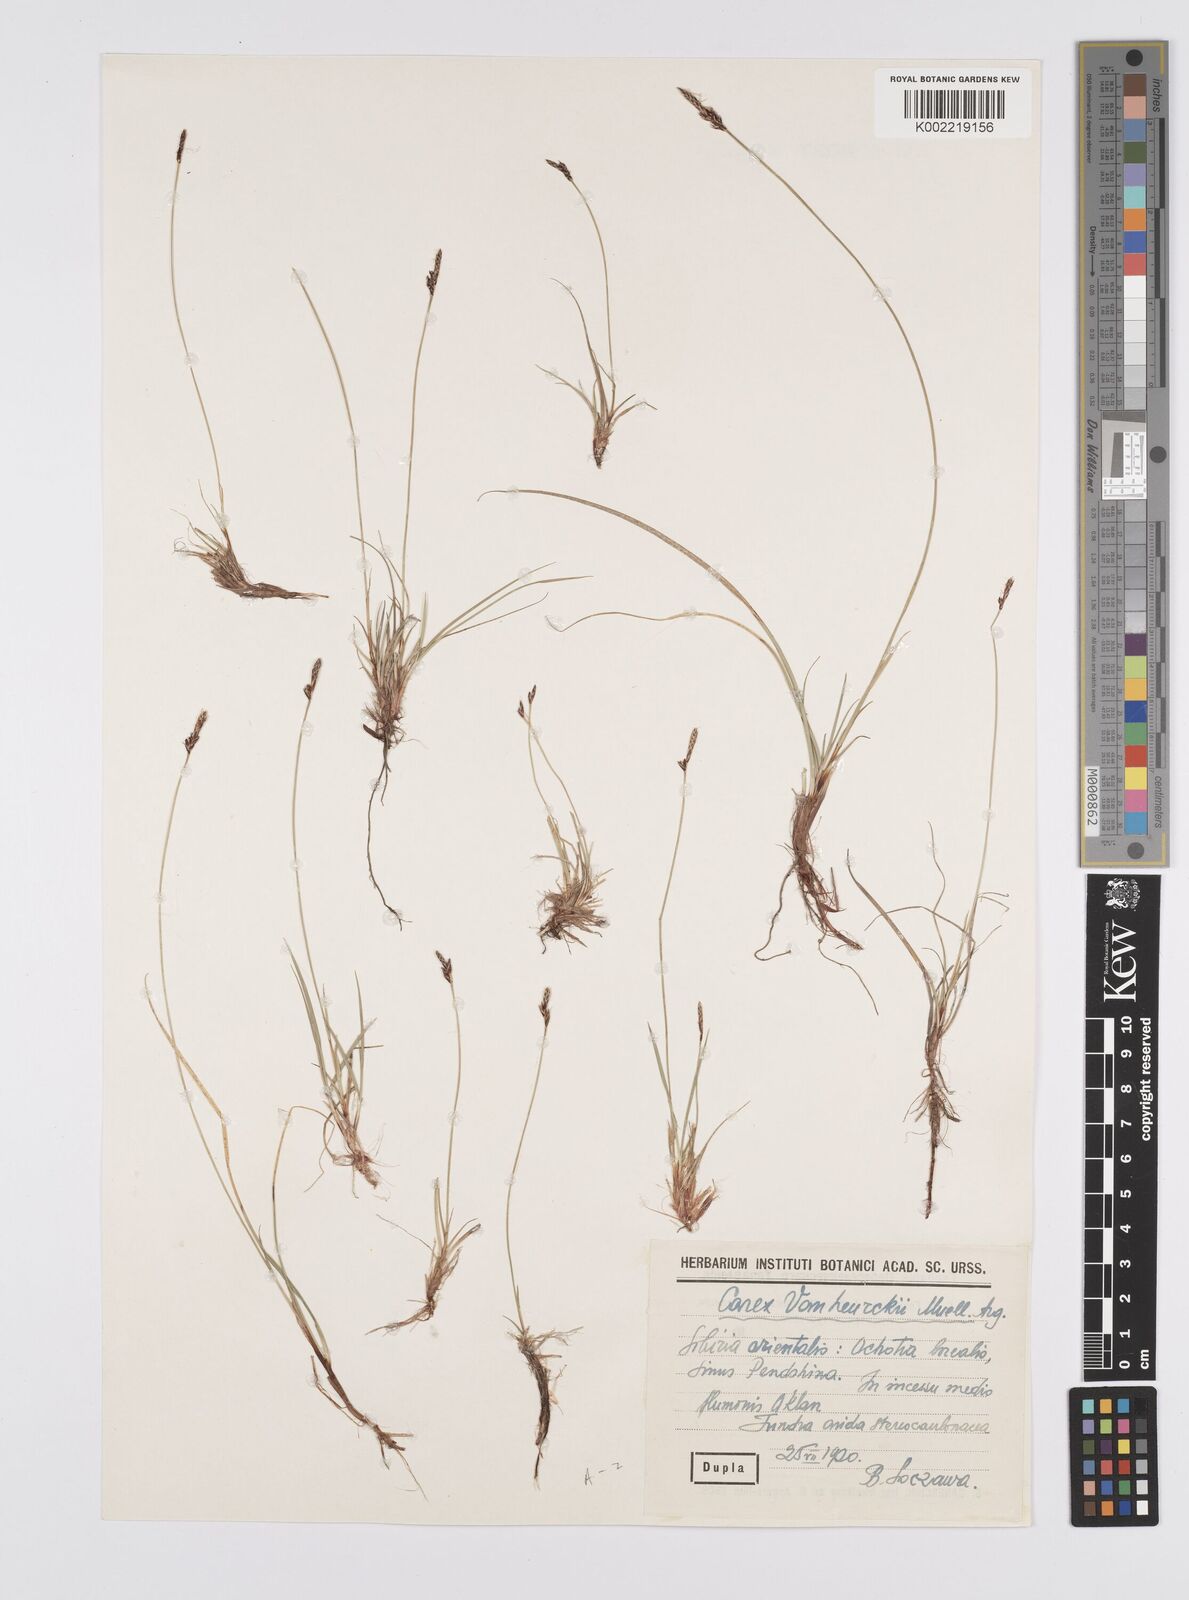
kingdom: Plantae
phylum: Tracheophyta
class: Liliopsida
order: Poales
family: Cyperaceae
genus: Carex
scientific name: Carex vanheurckii
